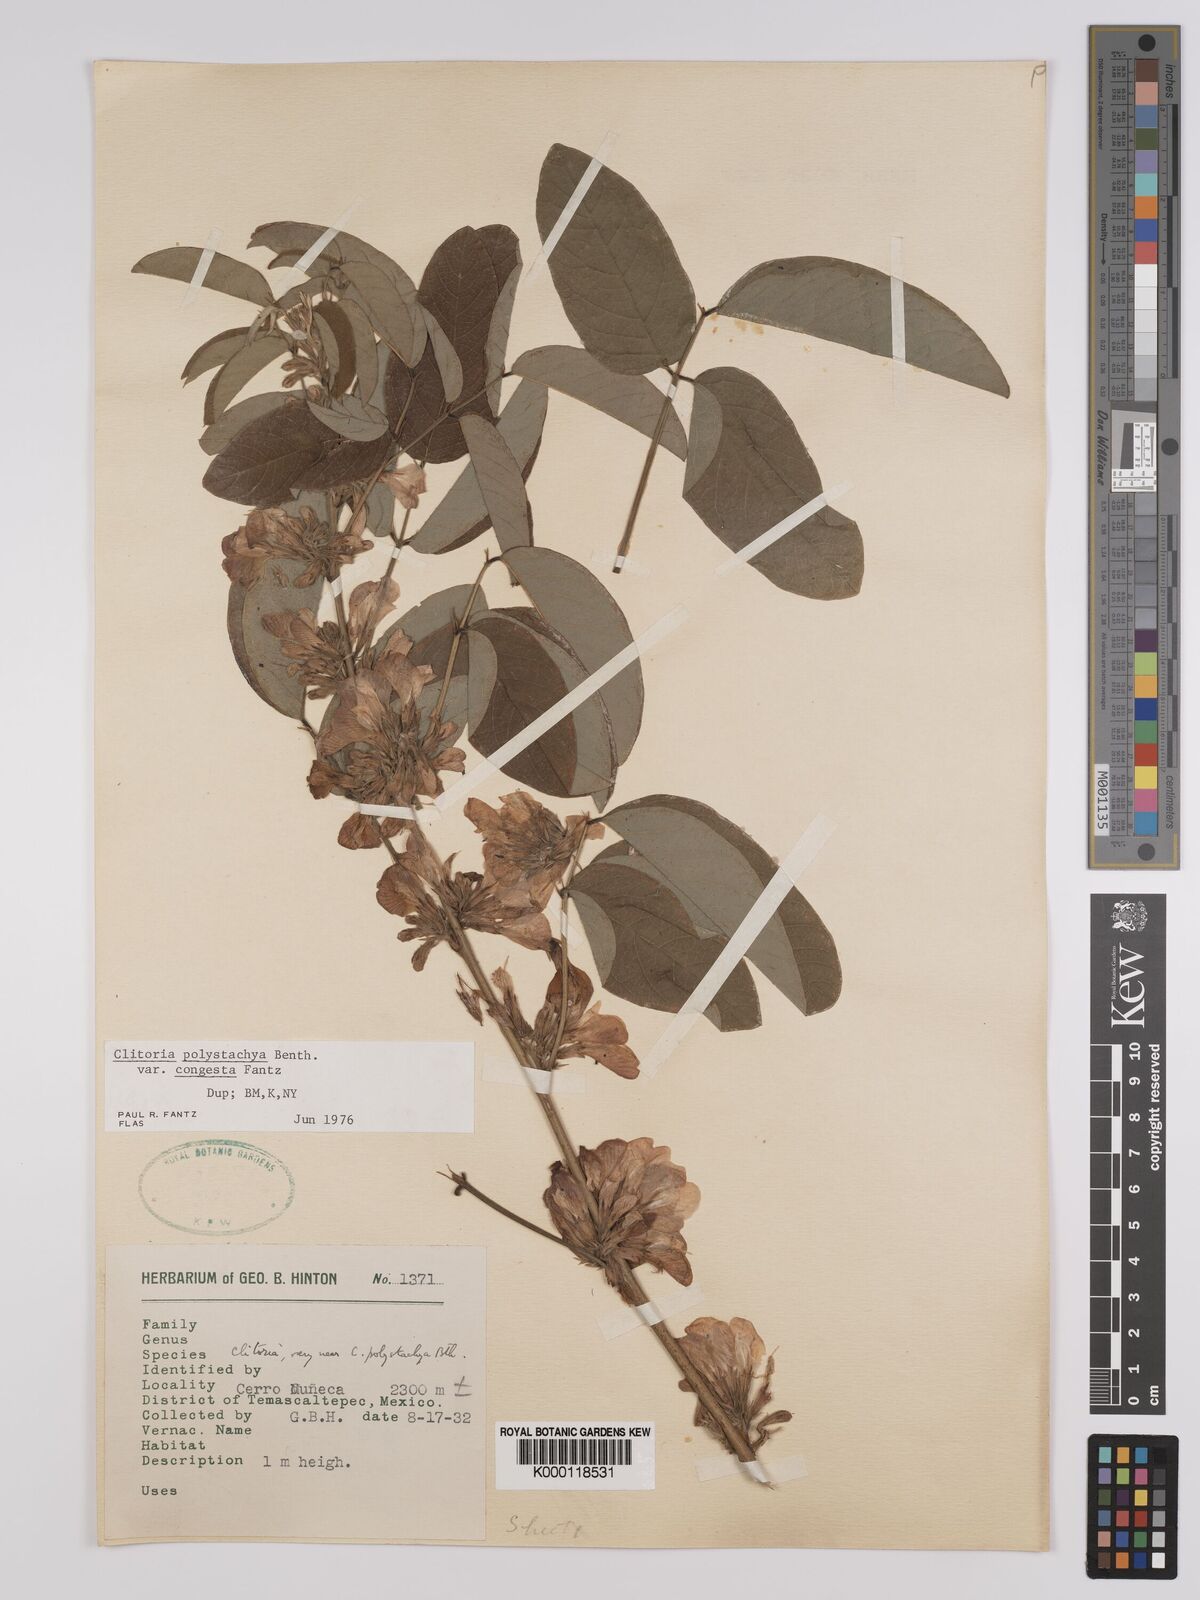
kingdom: Plantae
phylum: Tracheophyta
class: Magnoliopsida
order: Fabales
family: Fabaceae
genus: Clitoria
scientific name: Clitoria polystachya
